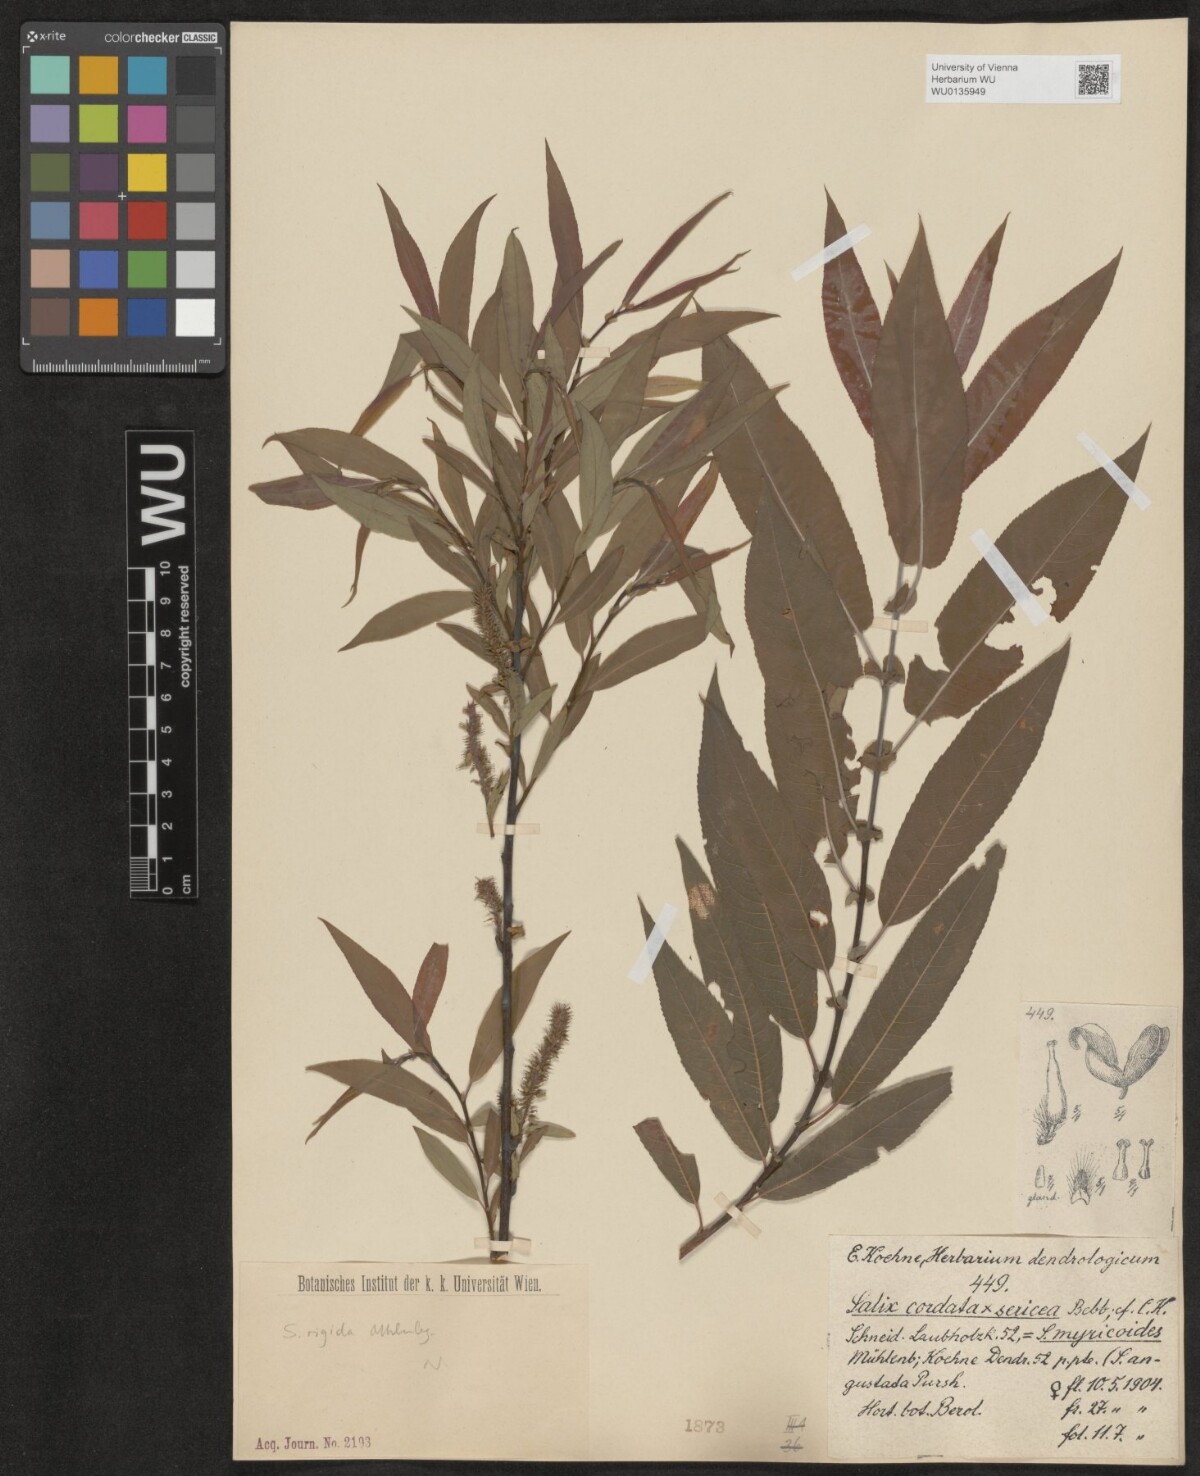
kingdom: Plantae
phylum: Tracheophyta
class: Magnoliopsida
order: Malpighiales
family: Salicaceae
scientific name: Salicaceae
